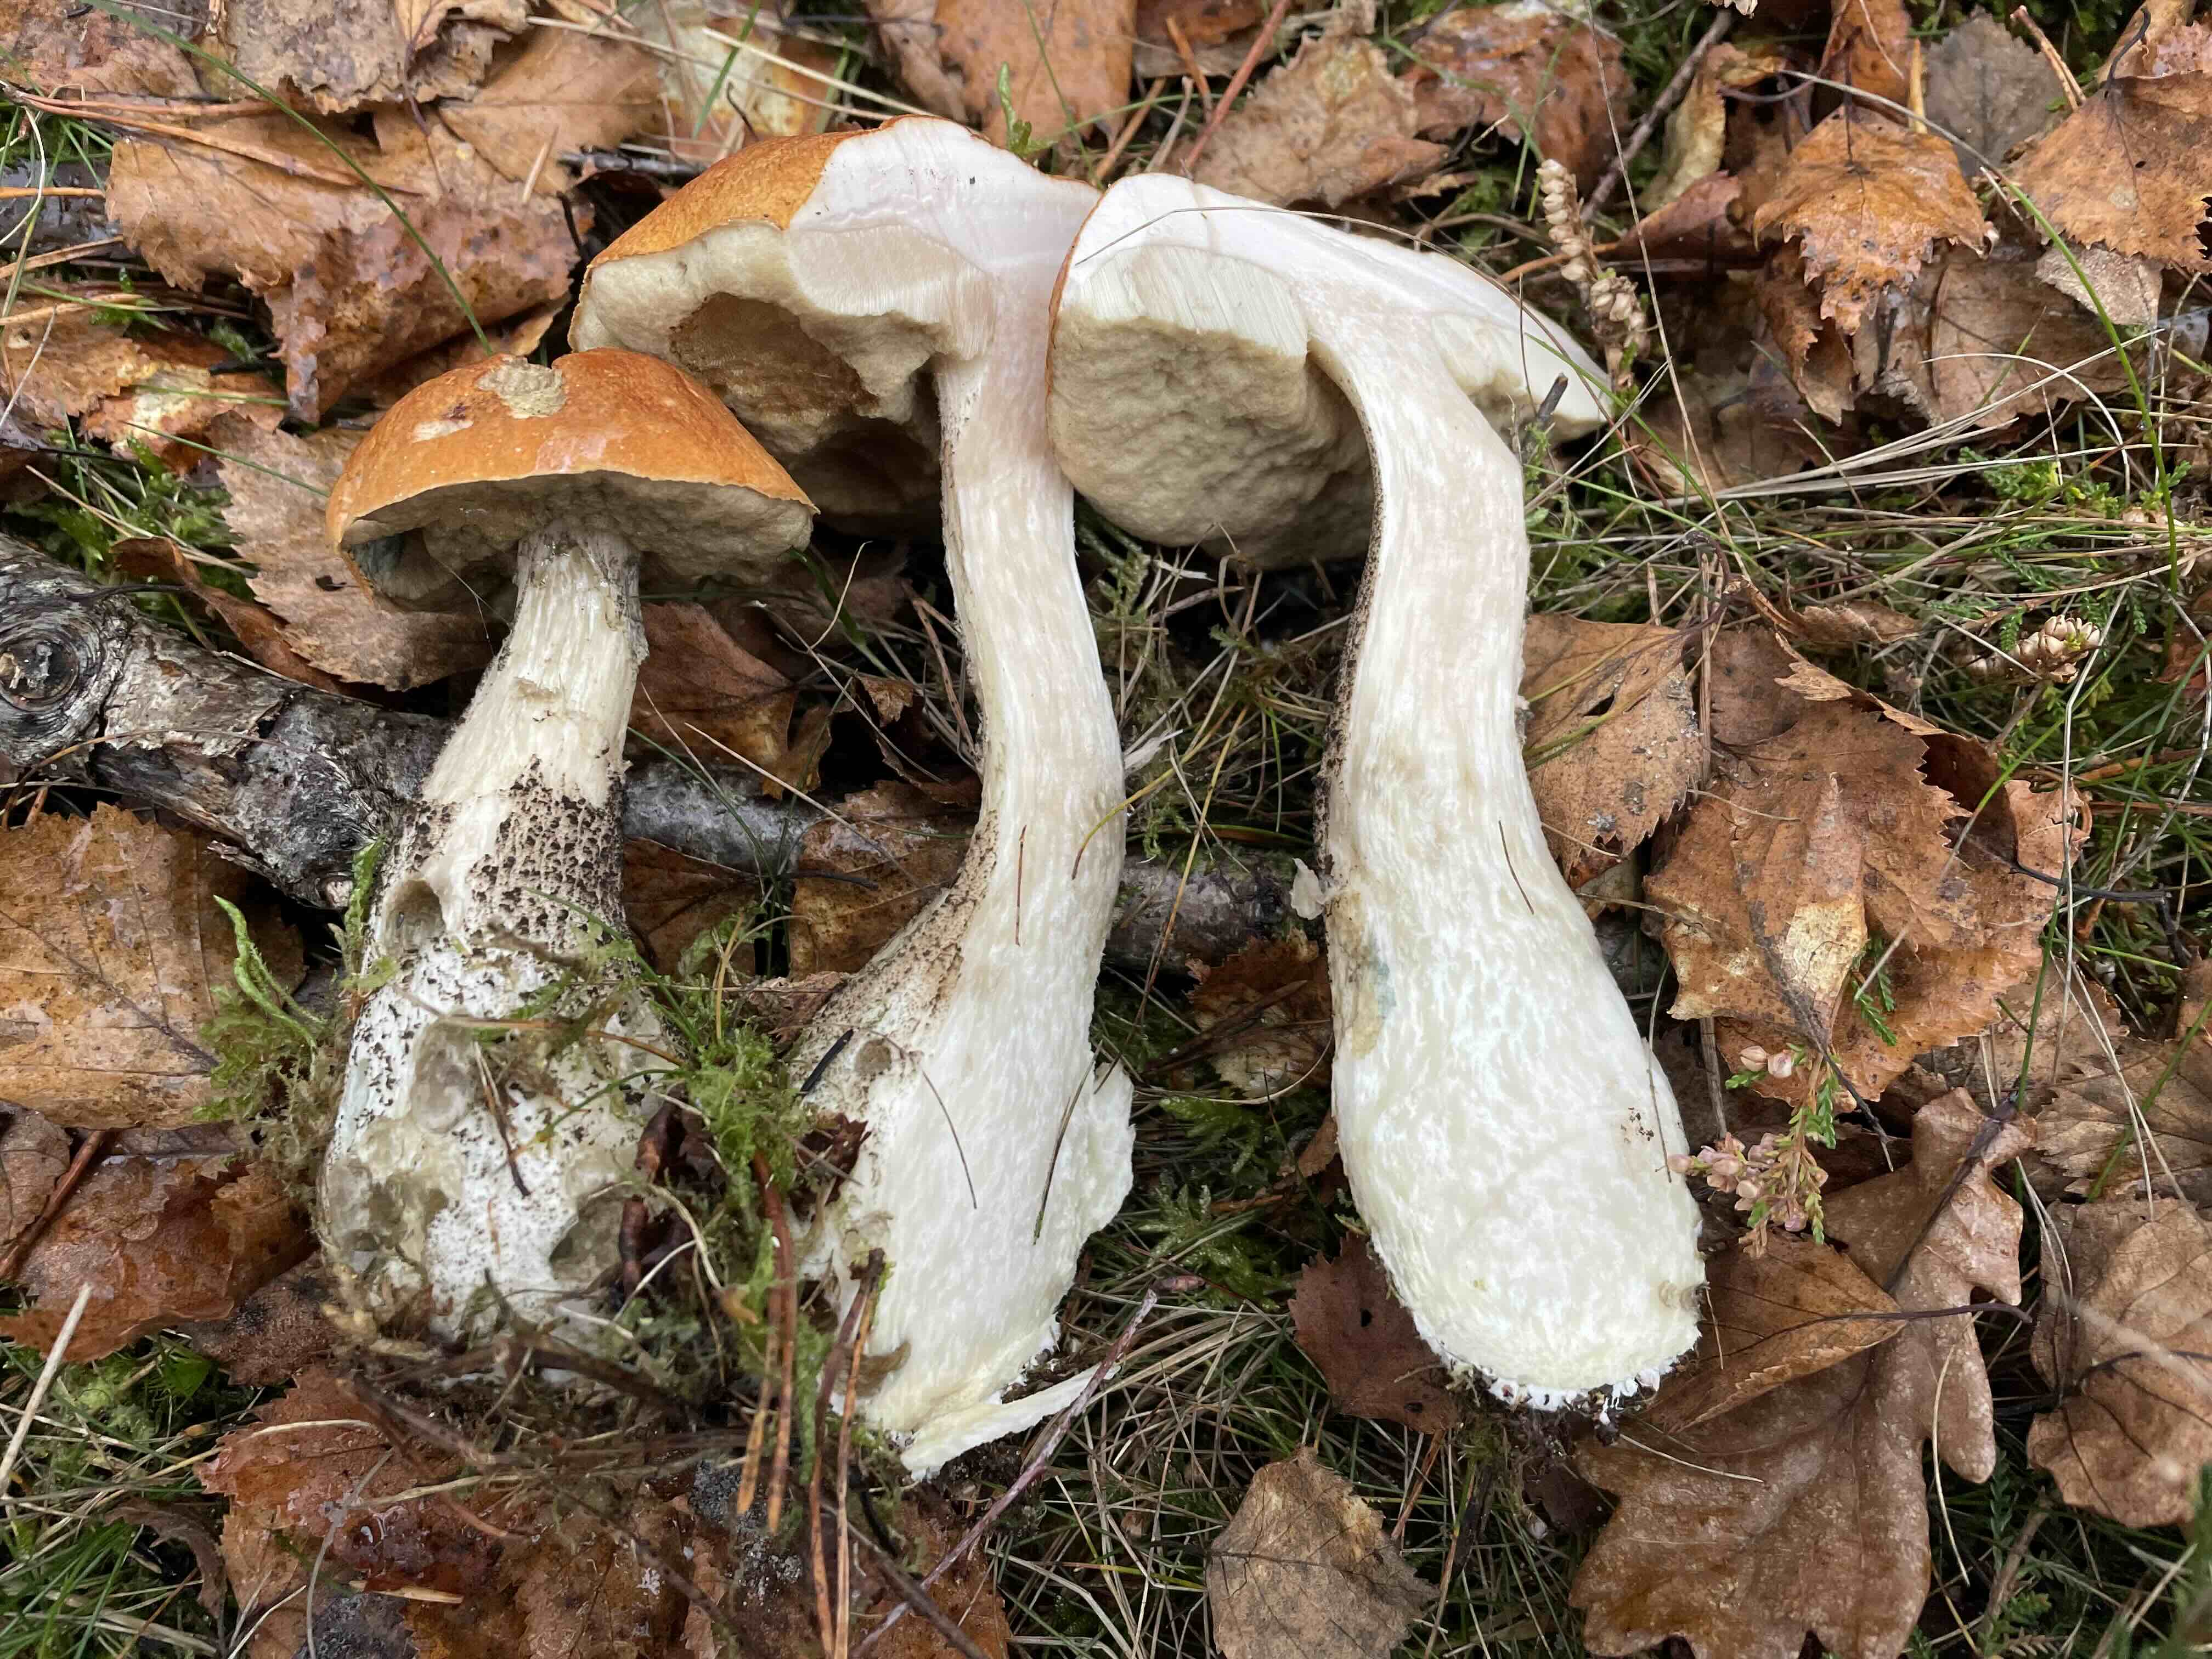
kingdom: Fungi
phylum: Basidiomycota
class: Agaricomycetes
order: Boletales
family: Boletaceae
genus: Leccinum
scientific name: Leccinum versipelle
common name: orange skælrørhat
